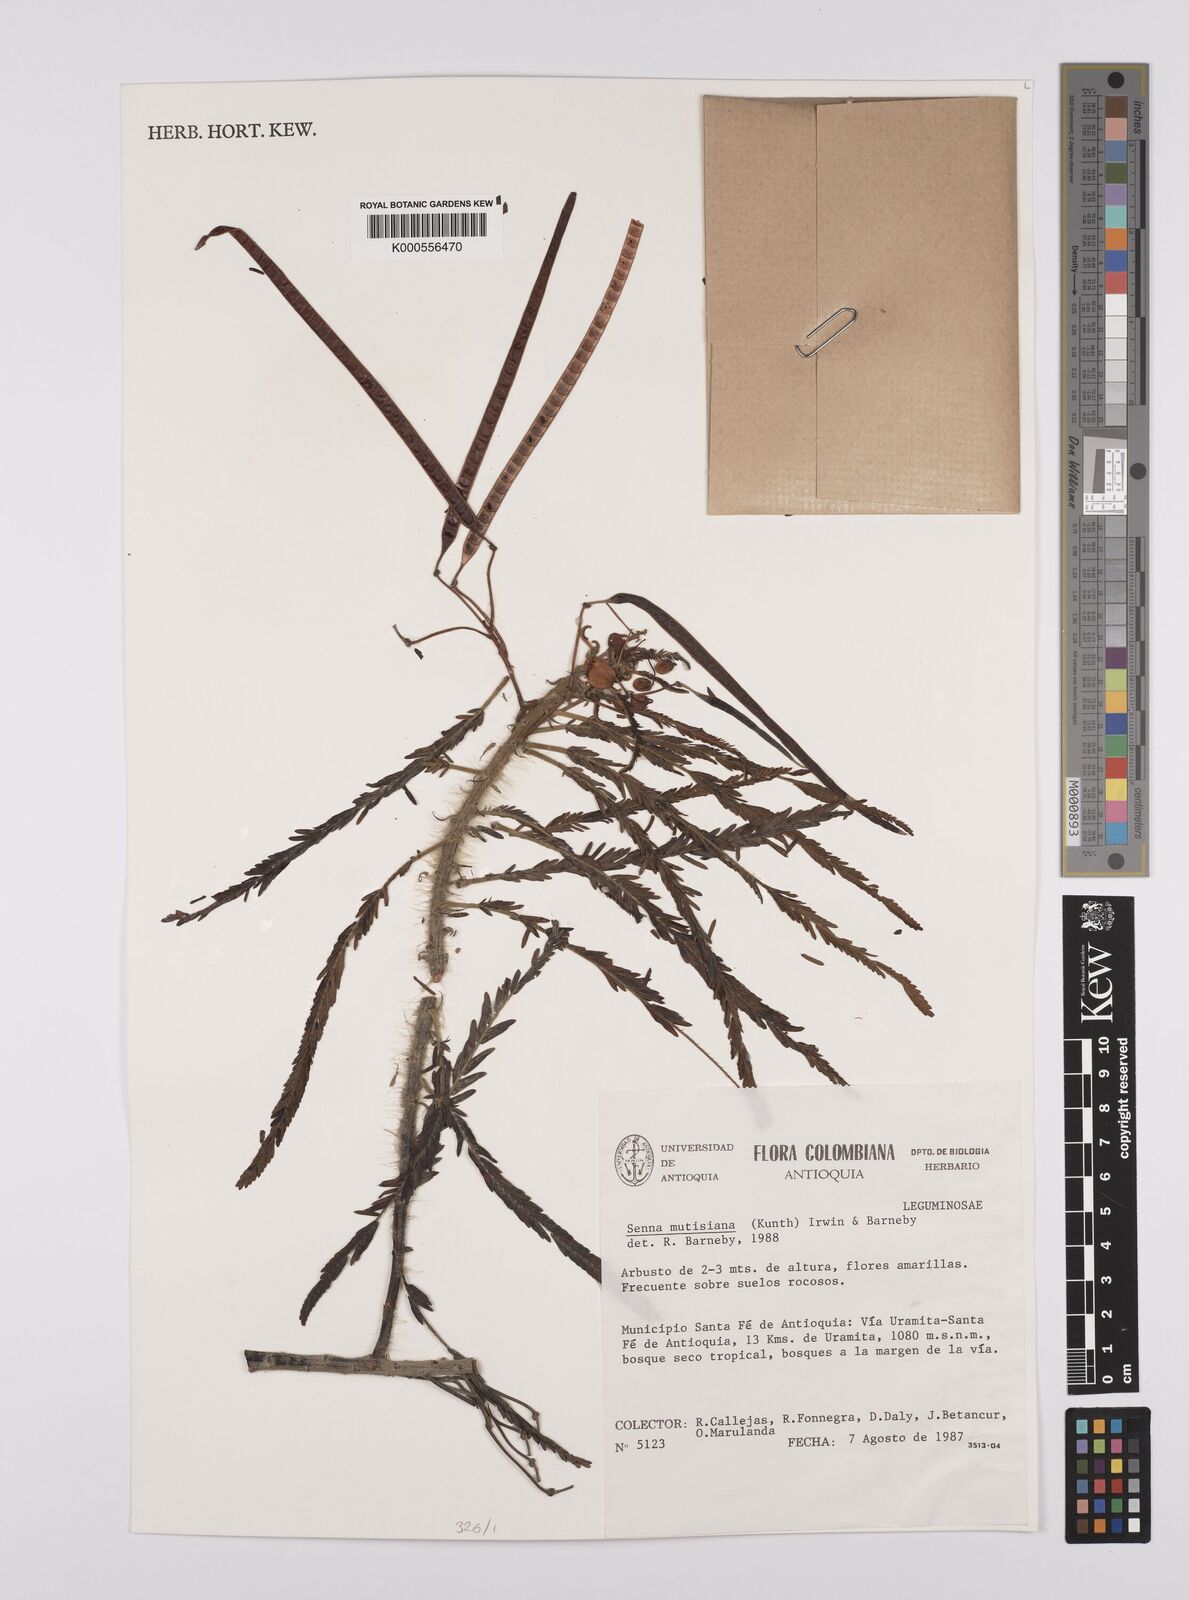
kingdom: Plantae
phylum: Tracheophyta
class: Magnoliopsida
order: Fabales
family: Fabaceae
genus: Senna
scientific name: Senna mutisiana
